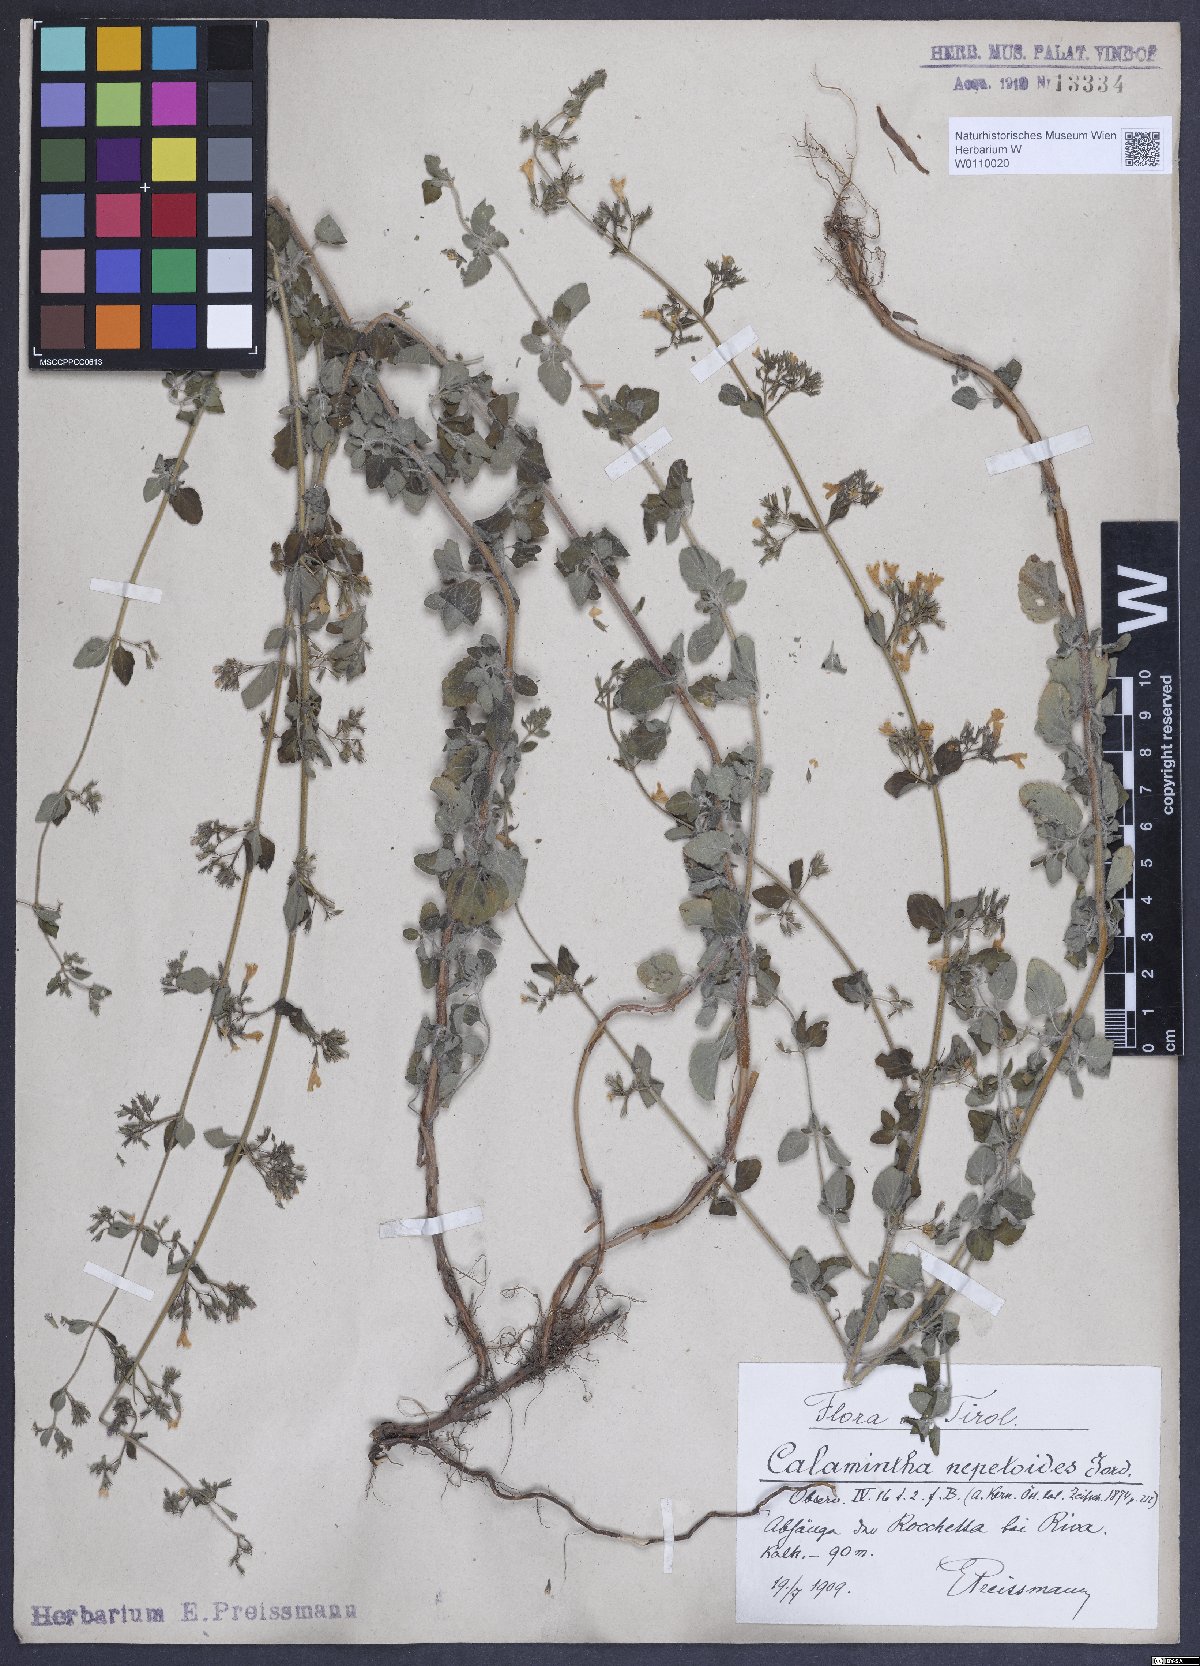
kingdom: Plantae
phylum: Tracheophyta
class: Magnoliopsida
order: Lamiales
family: Lamiaceae
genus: Clinopodium
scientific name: Clinopodium nepeta
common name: Lesser calamint
